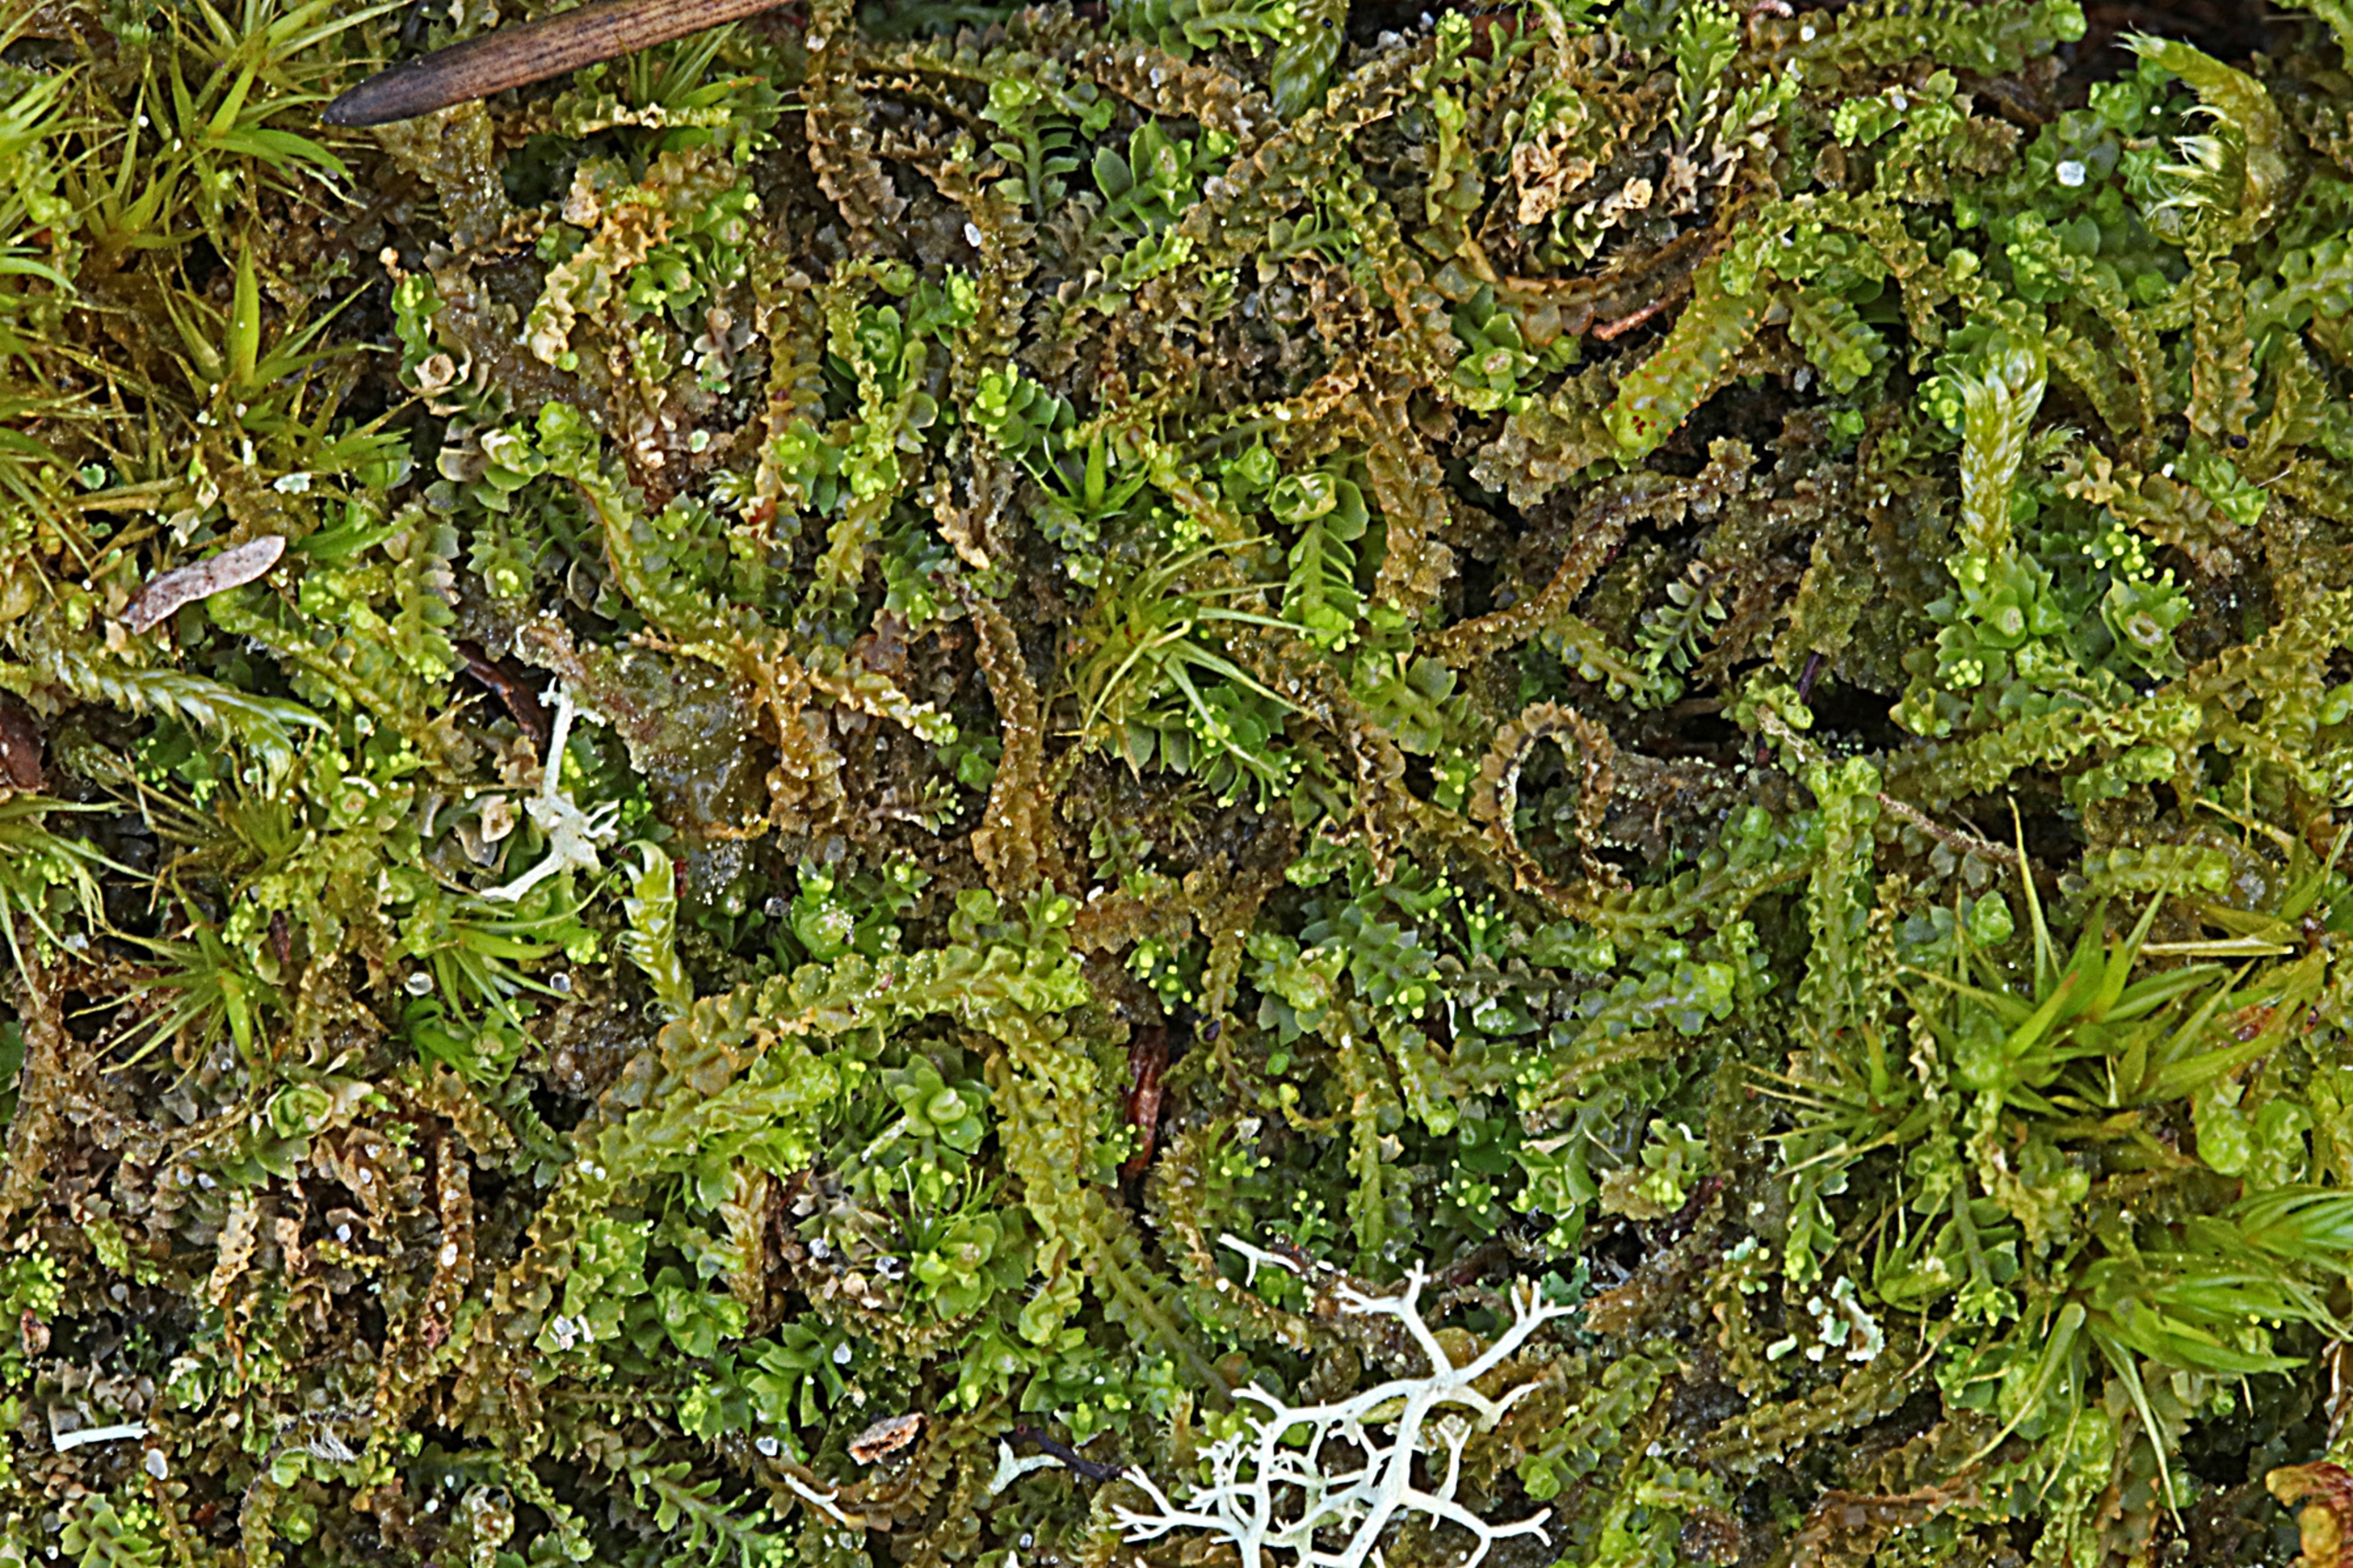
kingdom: Plantae
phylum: Marchantiophyta
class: Jungermanniopsida
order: Jungermanniales
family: Anastrophyllaceae
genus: Barbilophozia
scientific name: Barbilophozia hatcheri
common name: Spidsfliget flerfligmos
